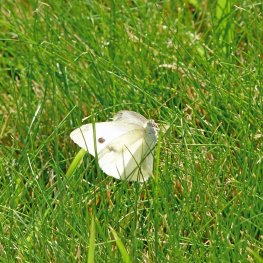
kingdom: Animalia
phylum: Arthropoda
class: Insecta
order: Lepidoptera
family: Pieridae
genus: Pieris
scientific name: Pieris rapae
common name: Cabbage White
